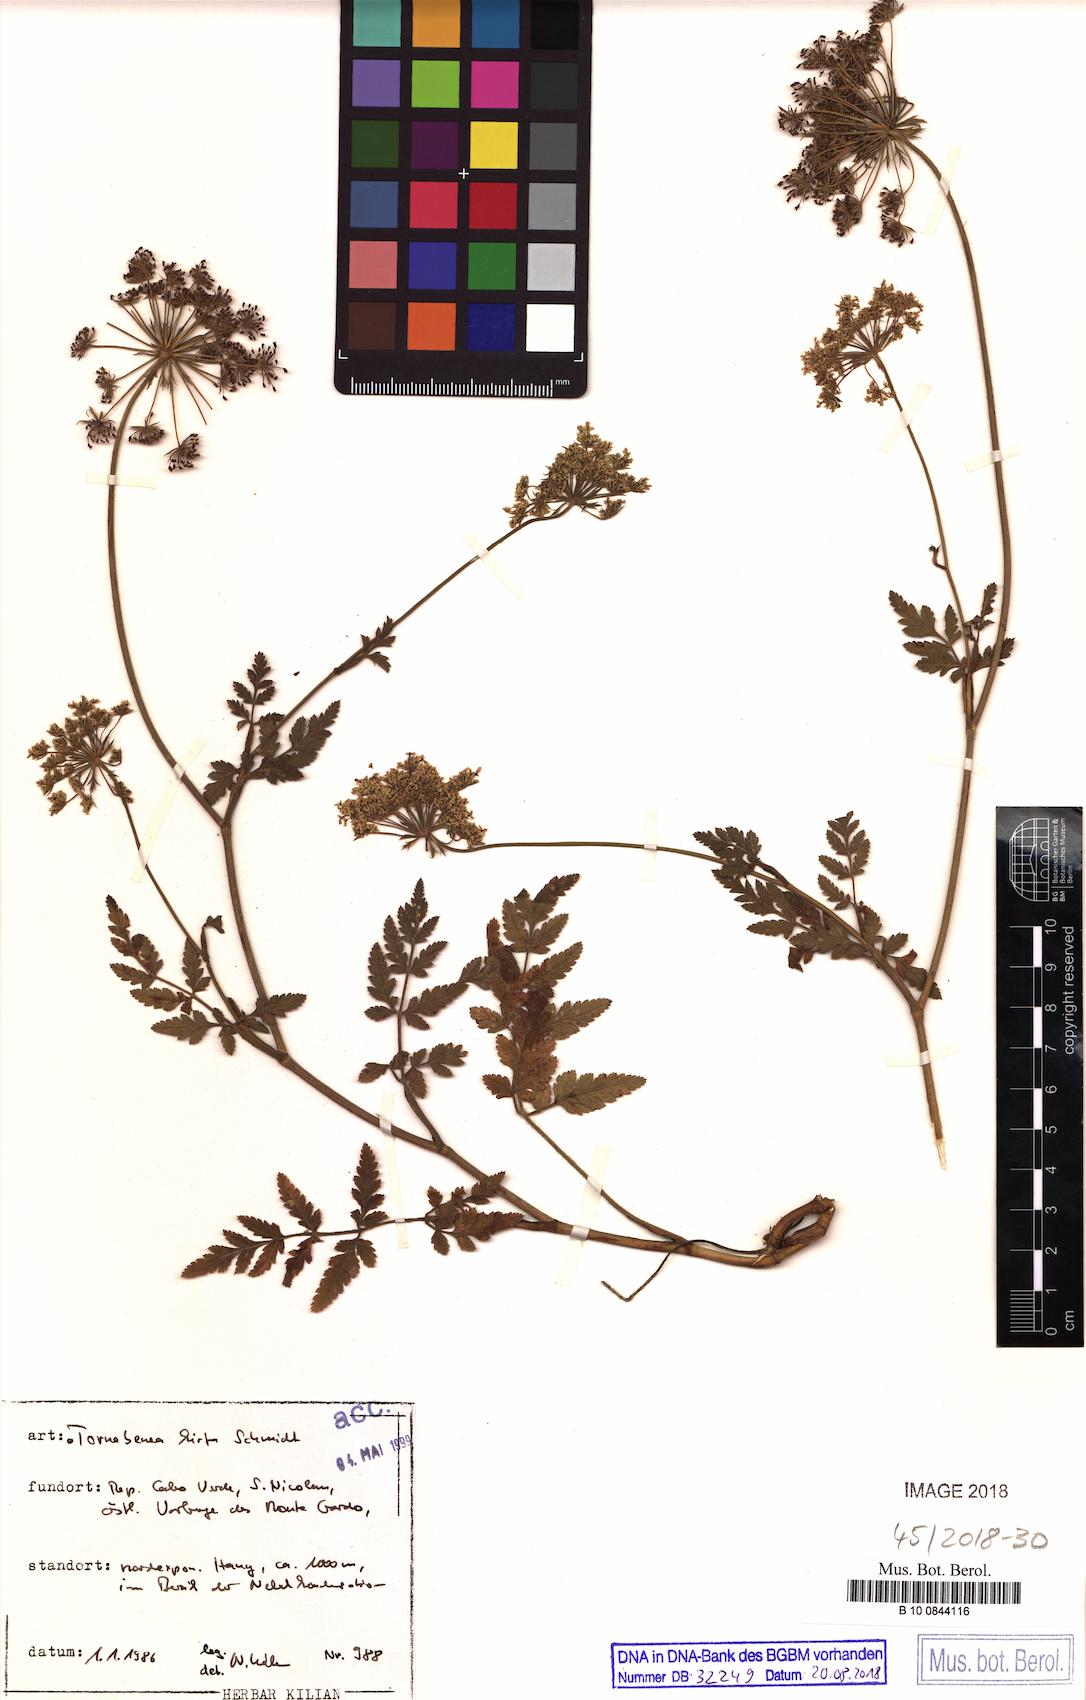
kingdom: Plantae
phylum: Tracheophyta
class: Magnoliopsida
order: Apiales
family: Apiaceae
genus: Daucus
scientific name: Daucus insularis
